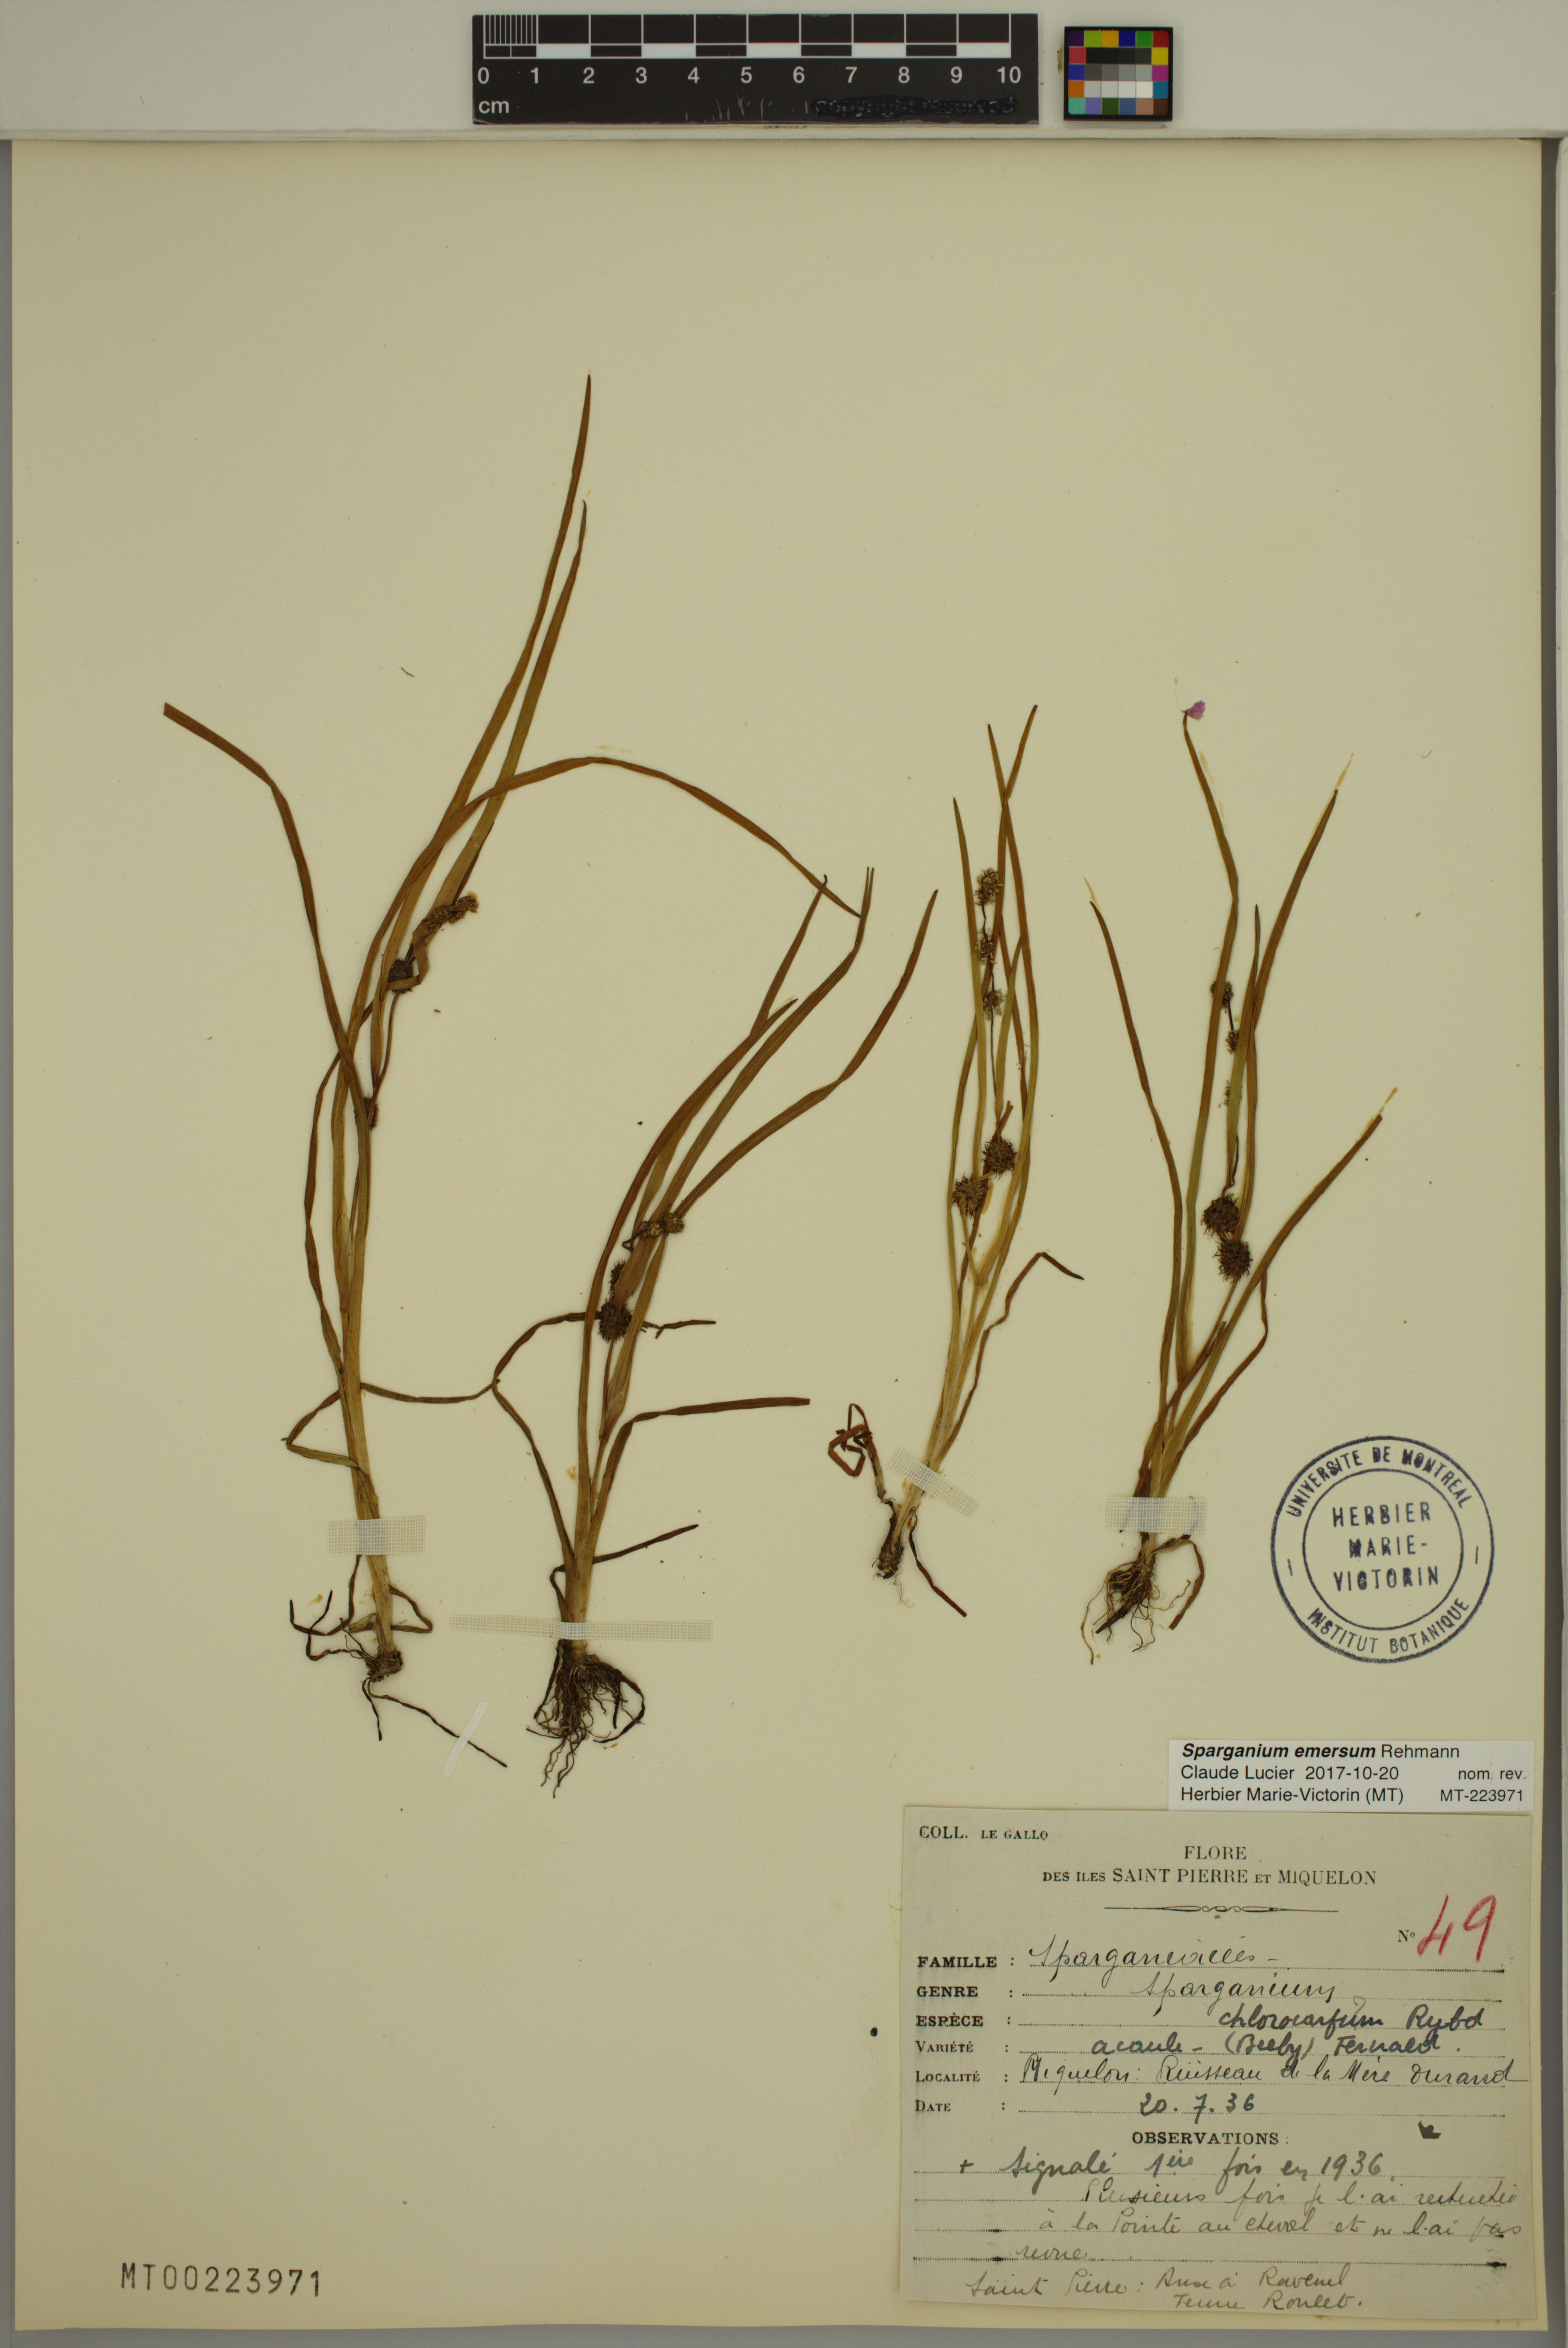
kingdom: Plantae
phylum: Tracheophyta
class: Liliopsida
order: Poales
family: Typhaceae
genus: Sparganium
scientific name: Sparganium emersum
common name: Unbranched bur-reed
